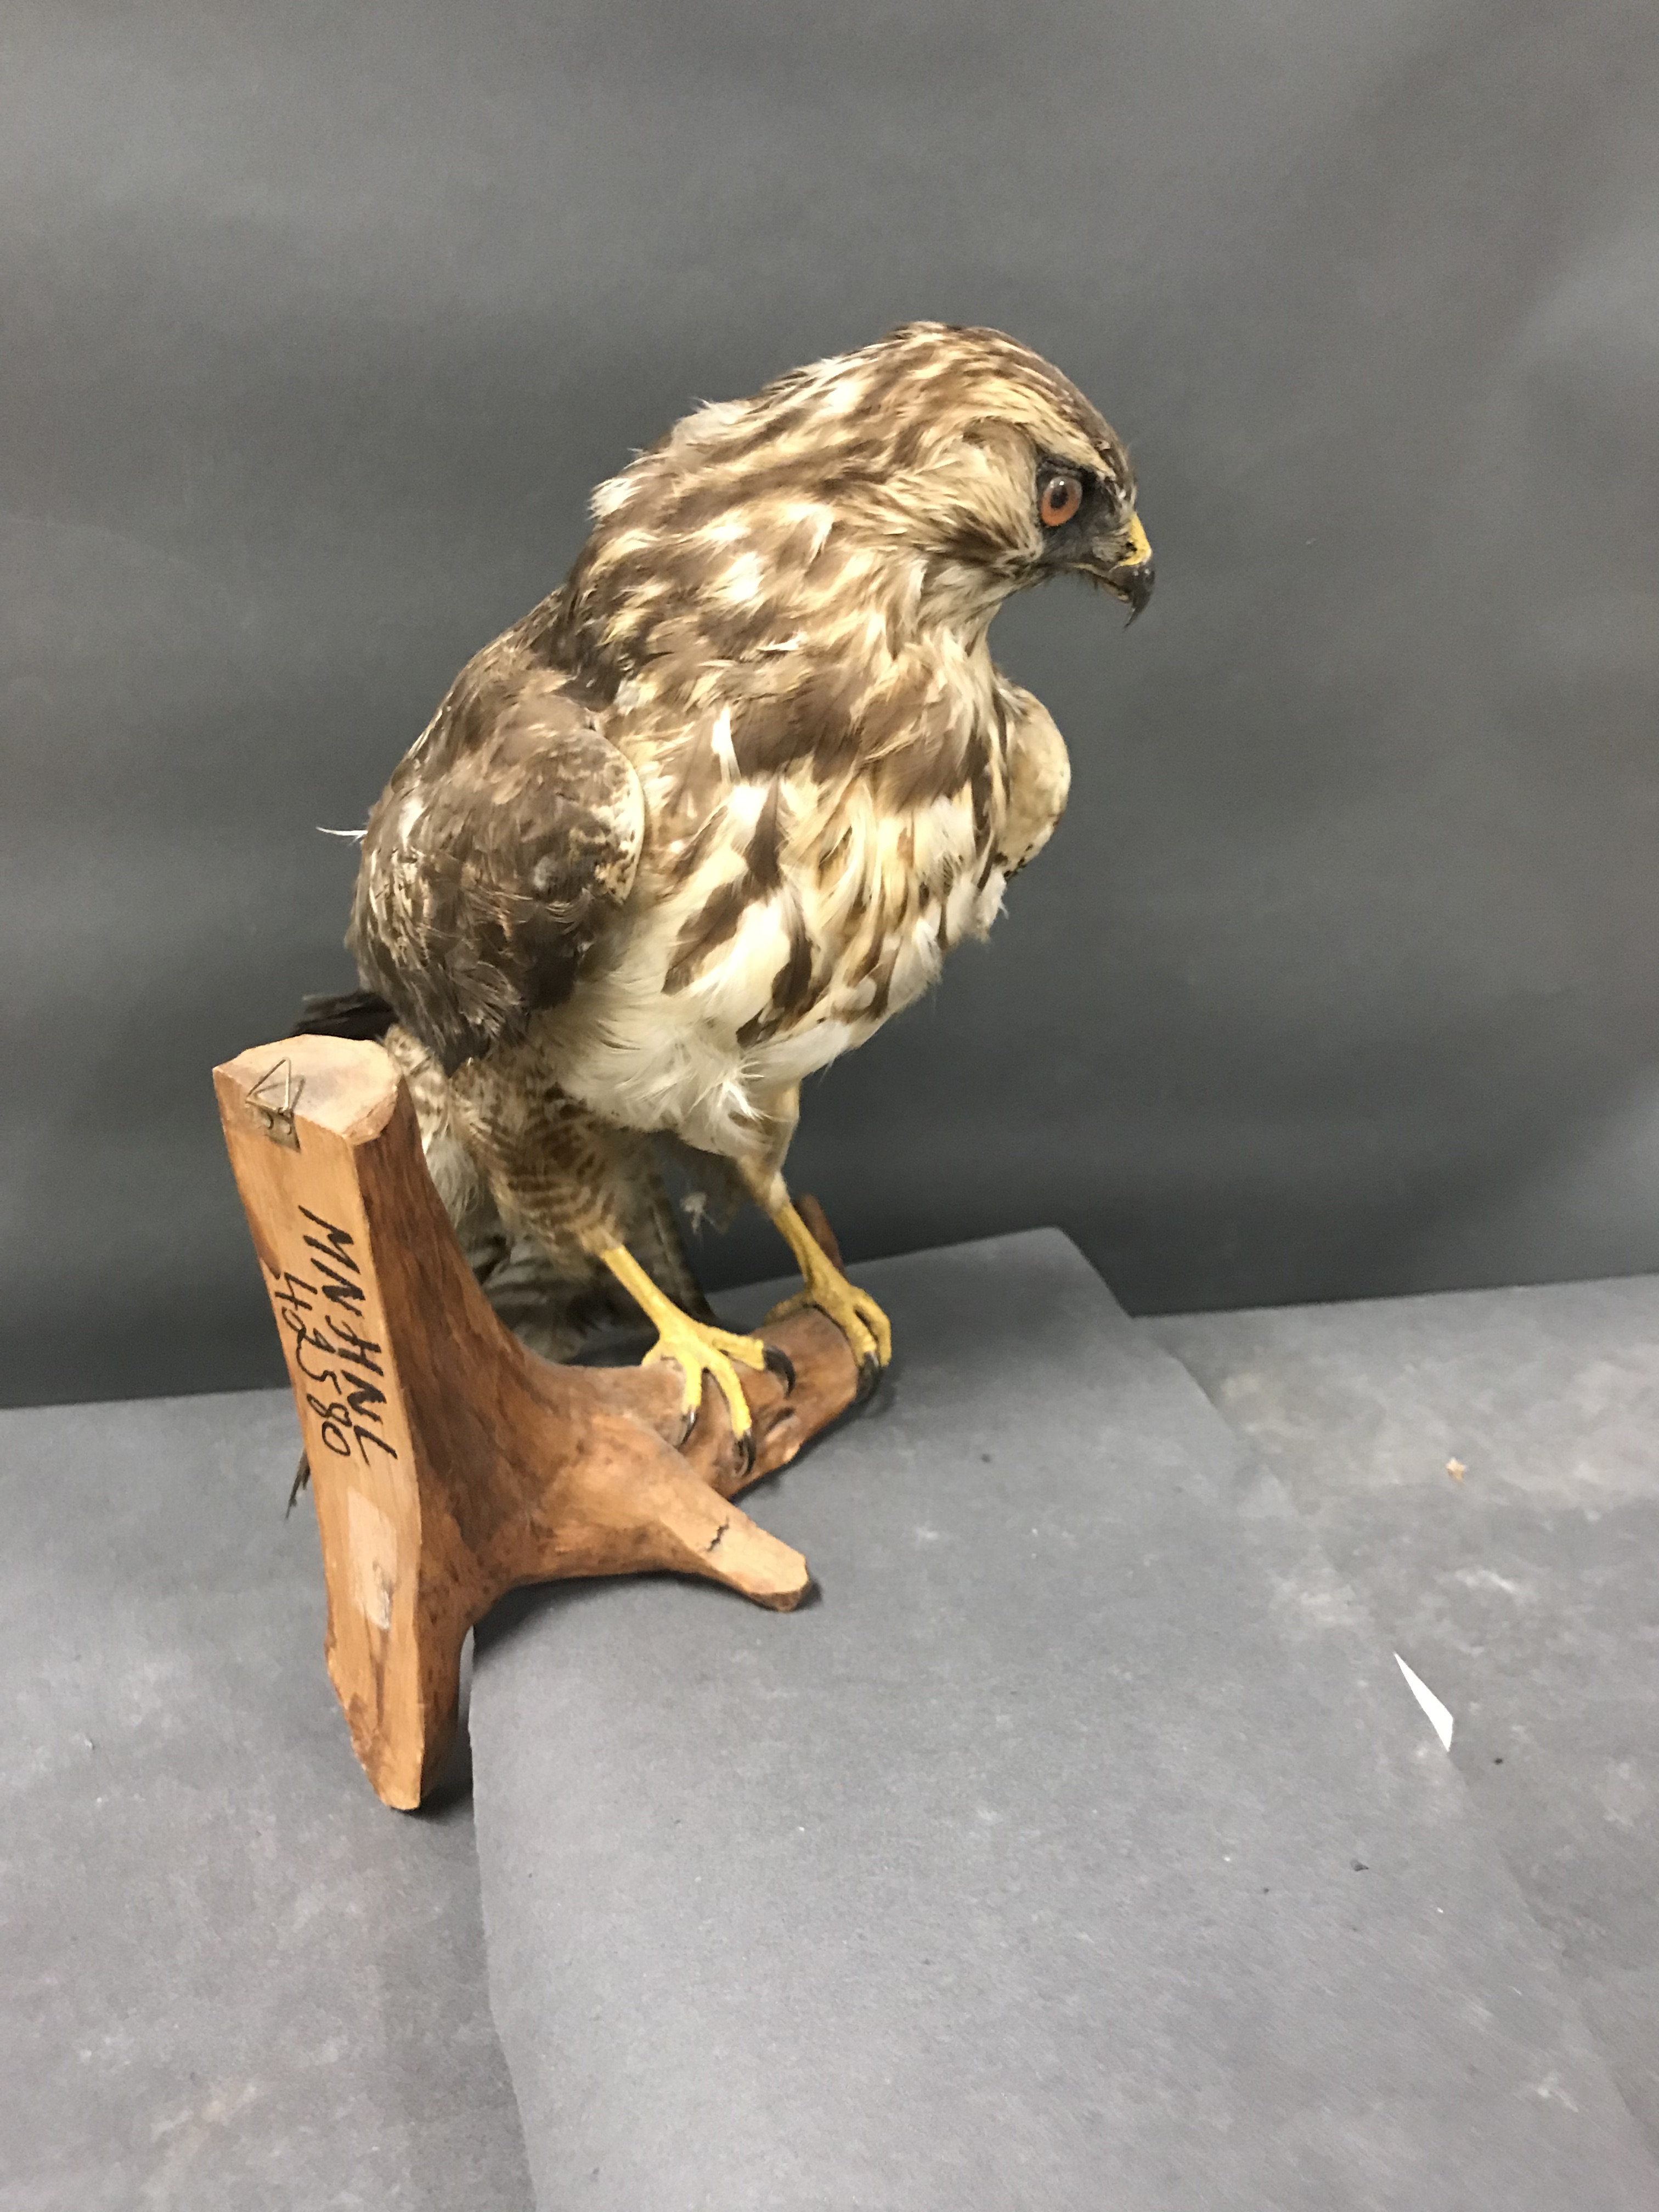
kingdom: Animalia
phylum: Chordata
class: Aves
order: Accipitriformes
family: Accipitridae
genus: Buteo
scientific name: Buteo buteo
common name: Common buzzard
